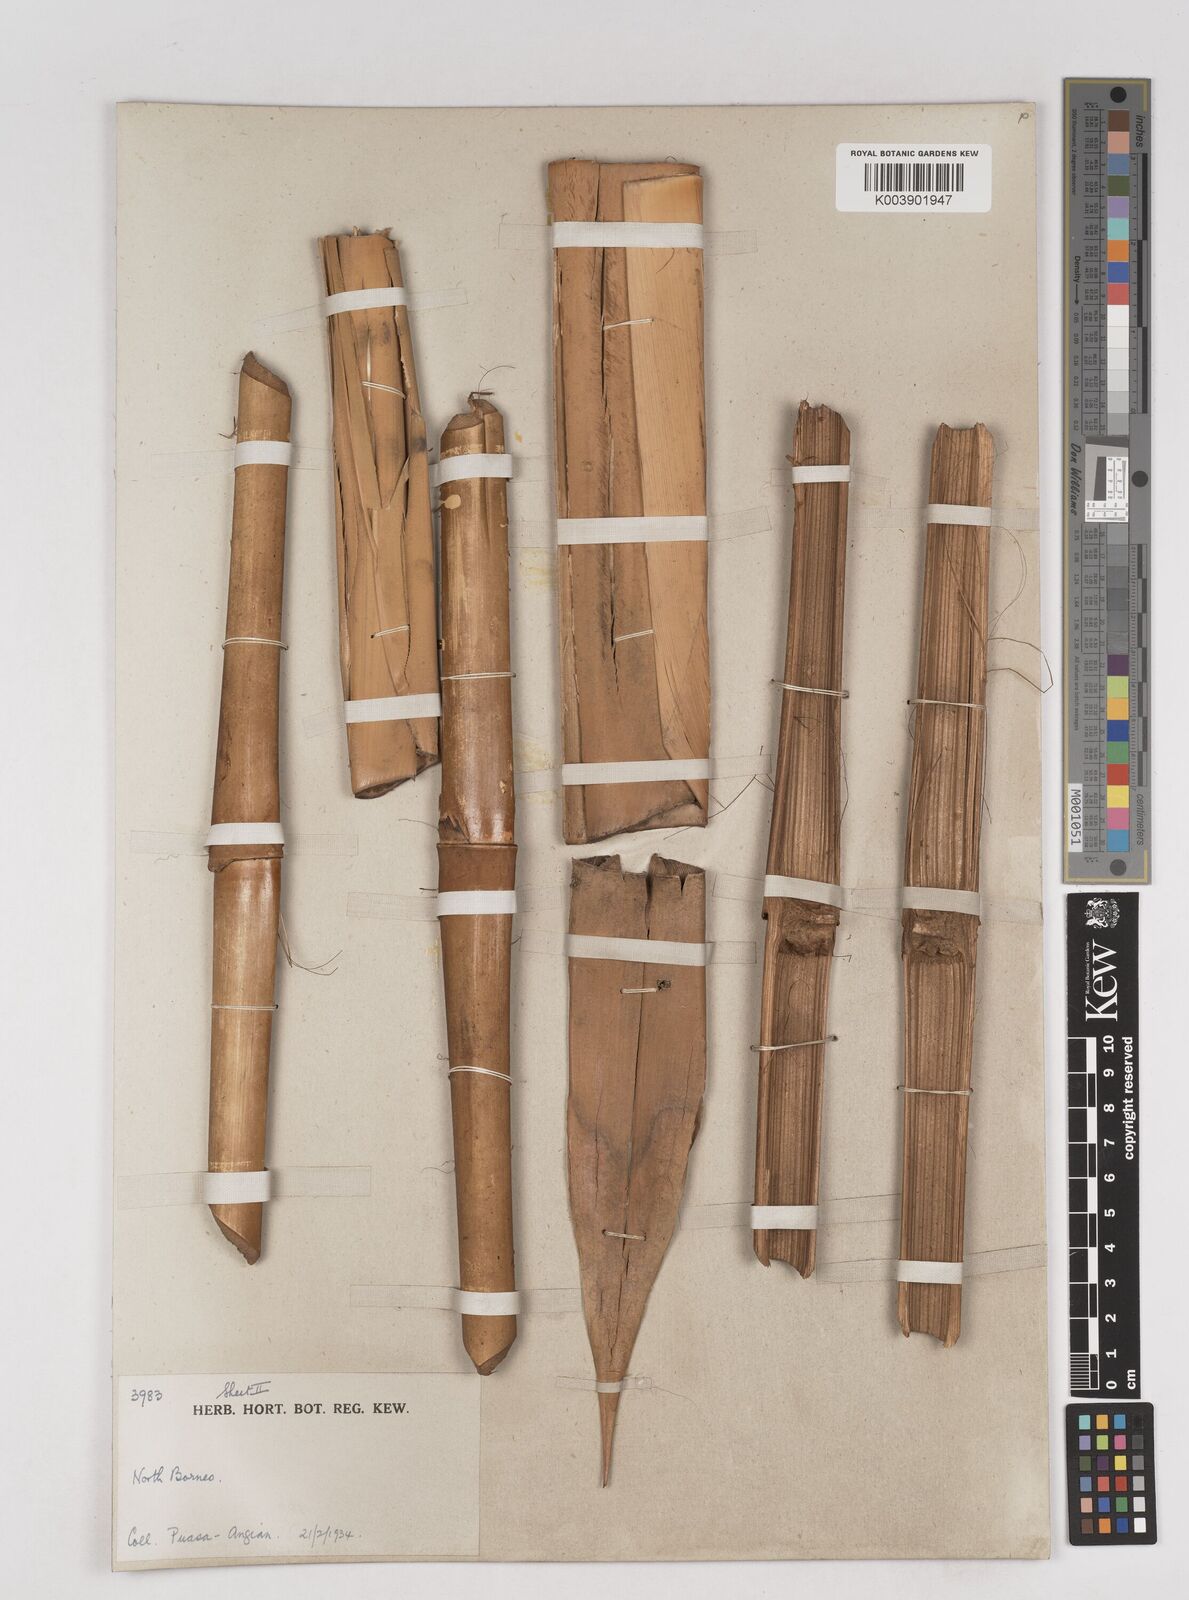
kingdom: Plantae
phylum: Tracheophyta
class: Liliopsida
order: Poales
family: Poaceae
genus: Schizostachyum
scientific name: Schizostachyum brachycladum
